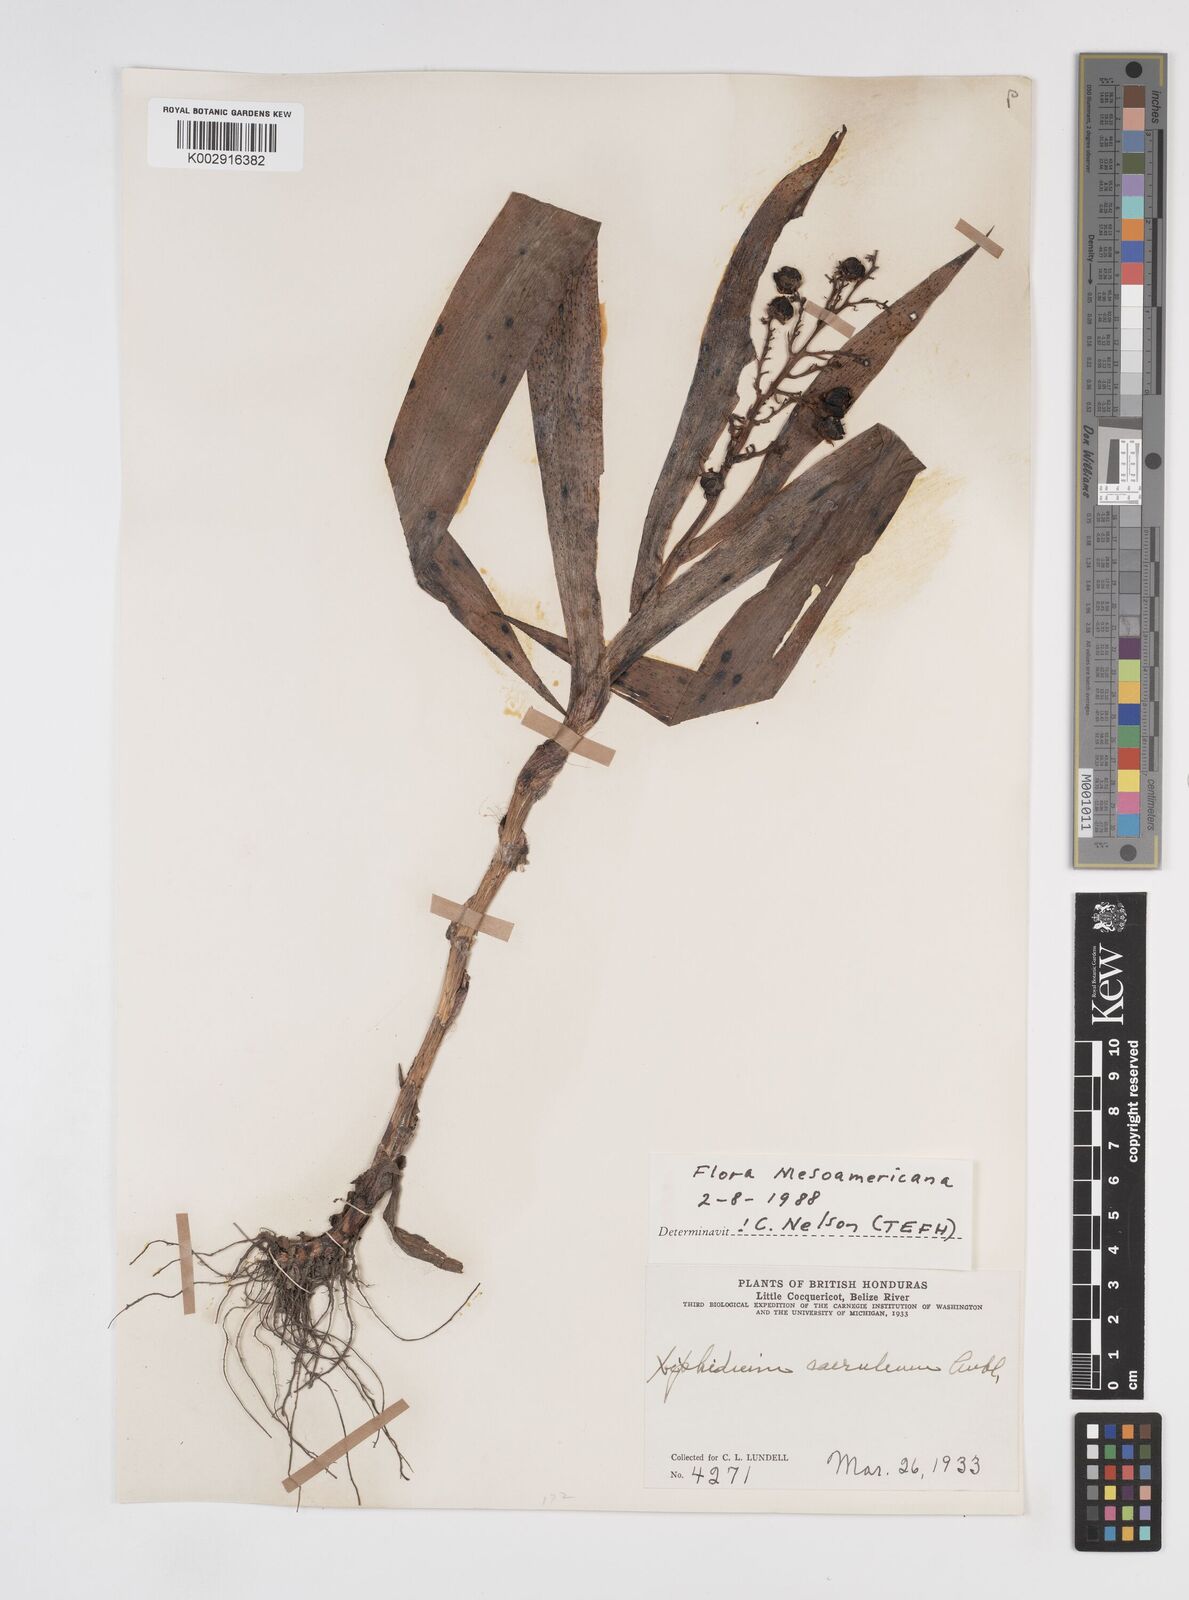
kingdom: Plantae
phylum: Tracheophyta
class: Liliopsida
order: Commelinales
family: Haemodoraceae
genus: Xiphidium
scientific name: Xiphidium caeruleum
